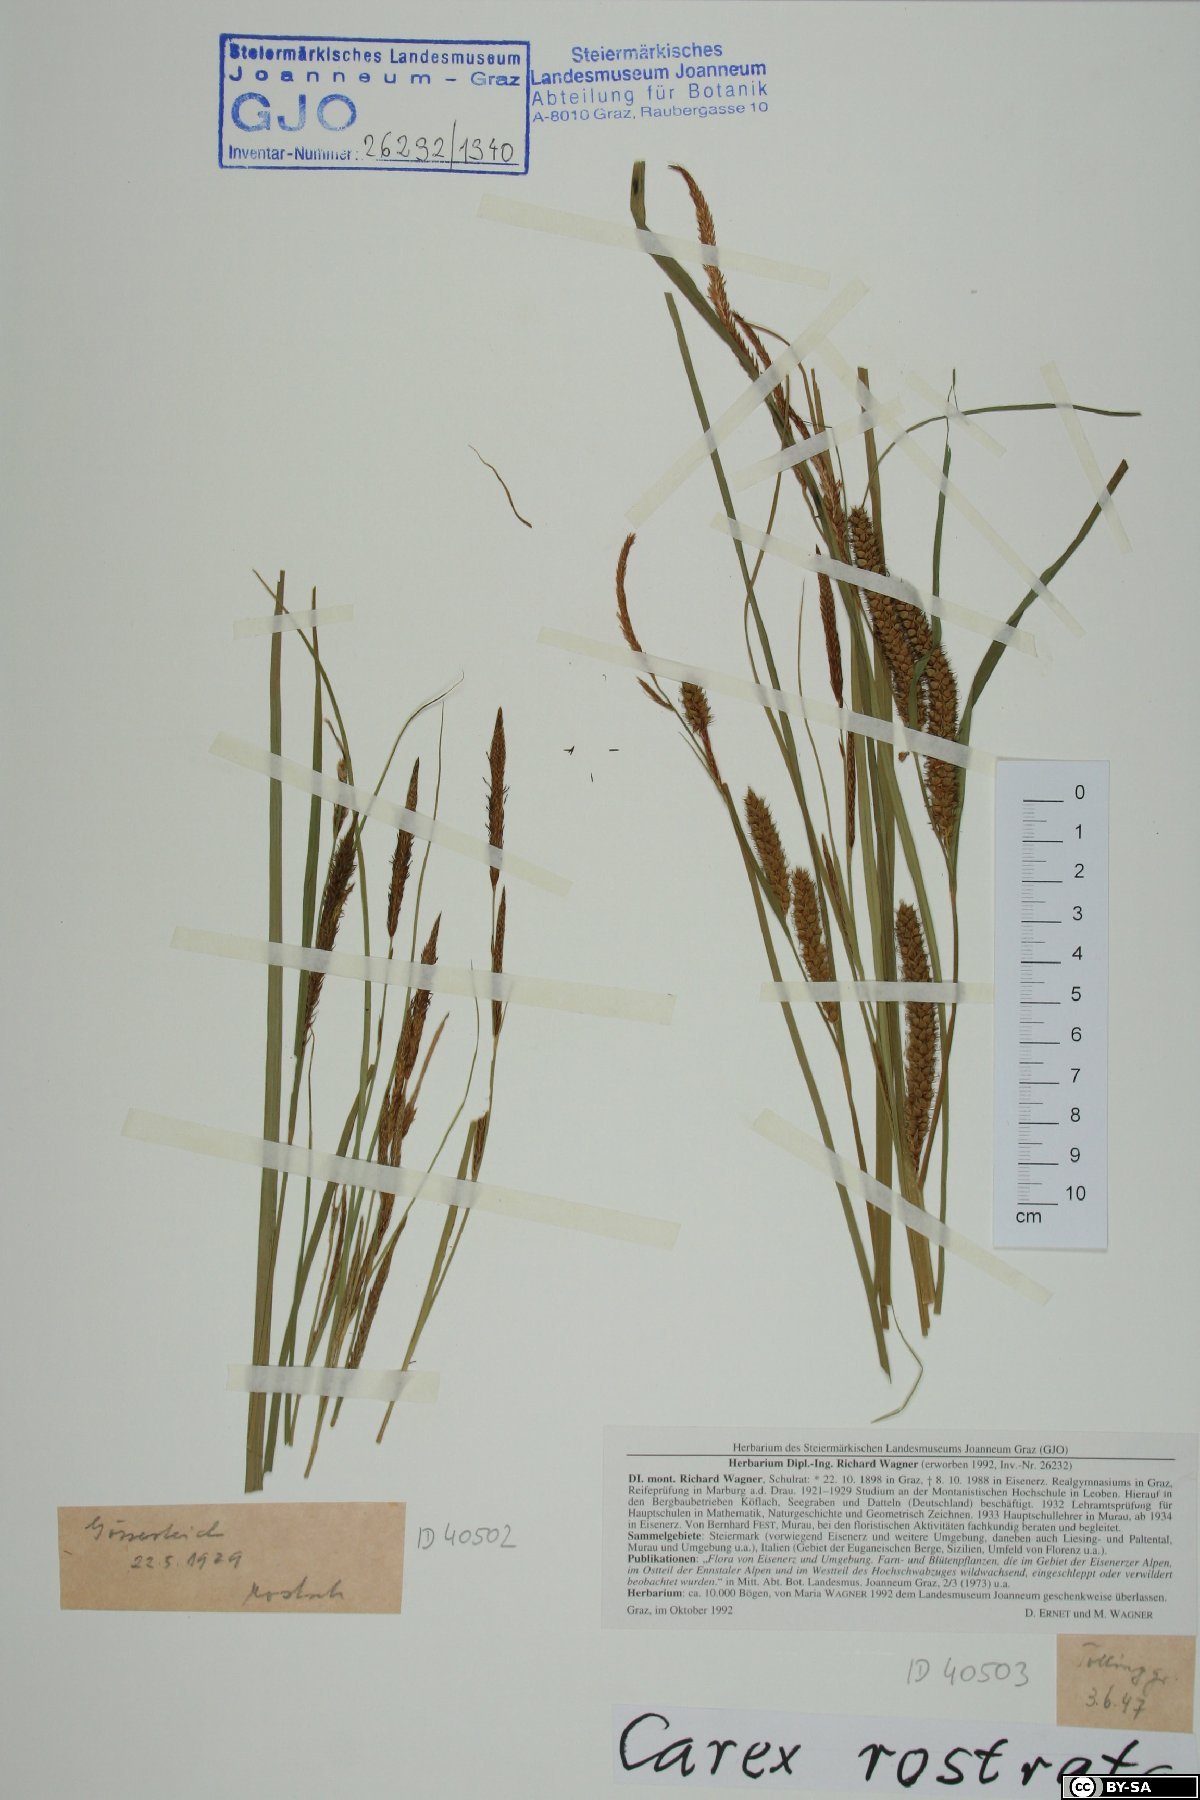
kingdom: Plantae
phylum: Tracheophyta
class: Liliopsida
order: Poales
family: Cyperaceae
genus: Carex
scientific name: Carex rostrata
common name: Bottle sedge
